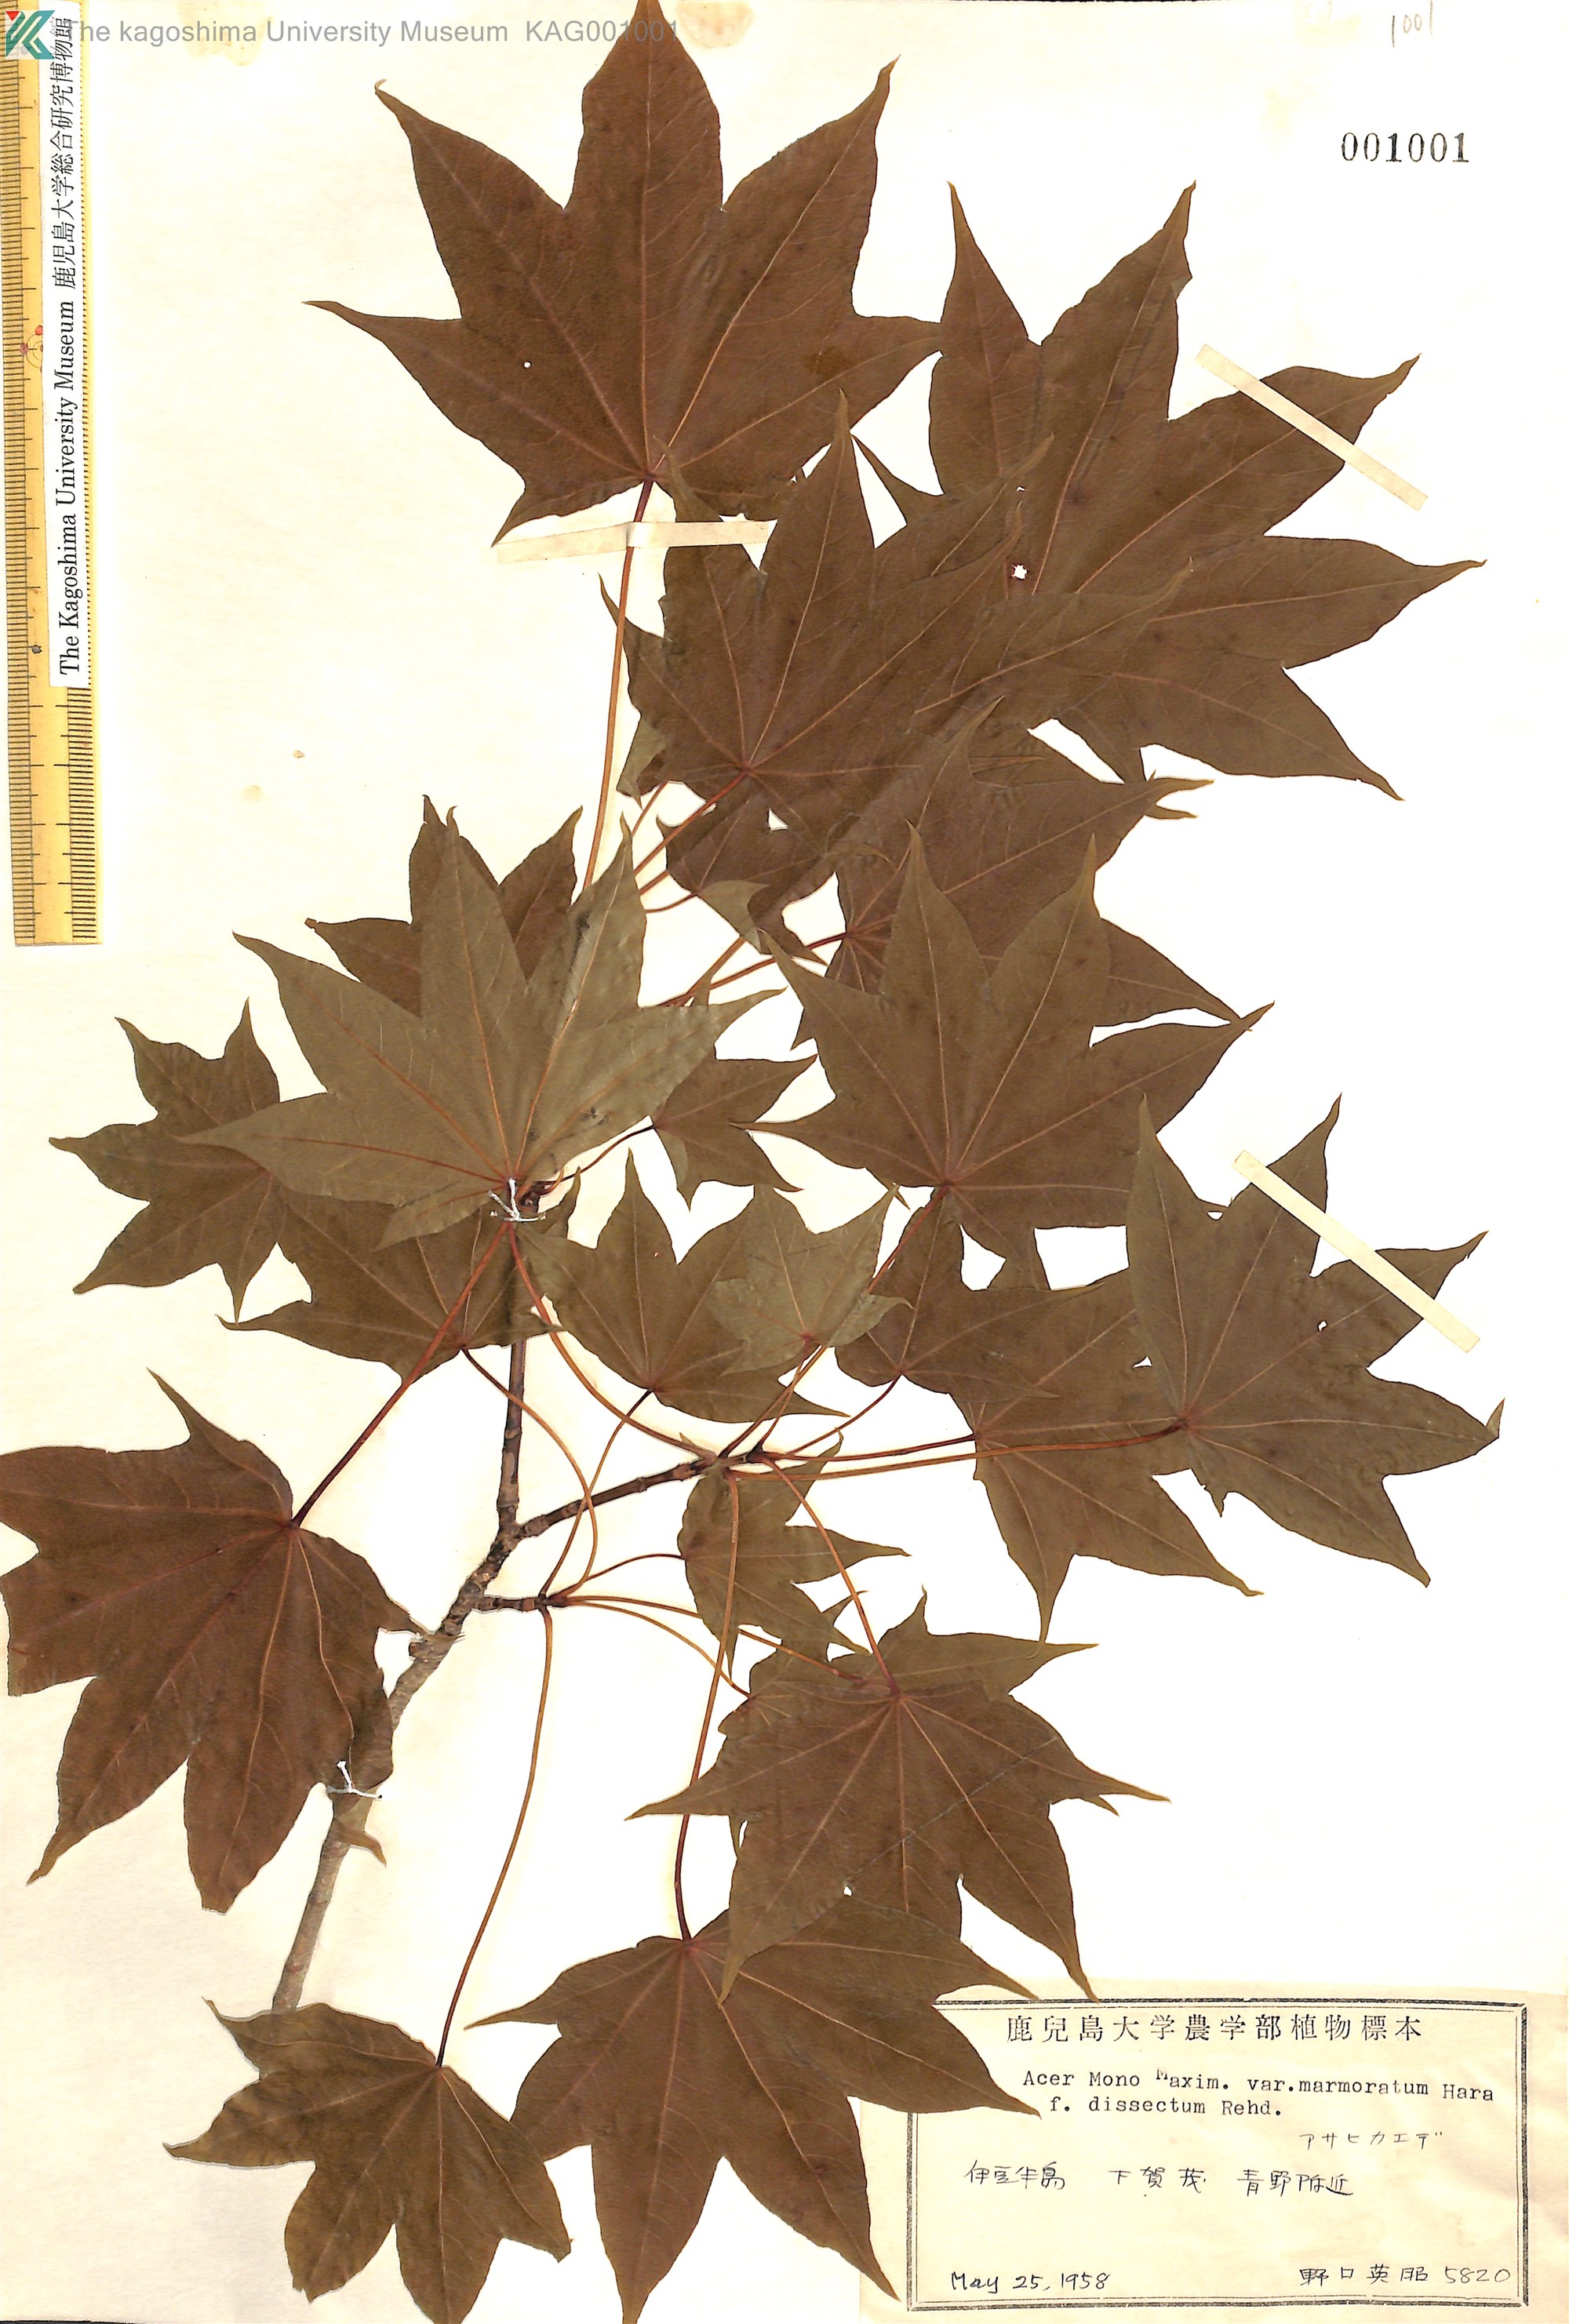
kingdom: Plantae
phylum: Tracheophyta
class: Magnoliopsida
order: Sapindales
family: Sapindaceae
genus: Acer
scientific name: Acer pictum
